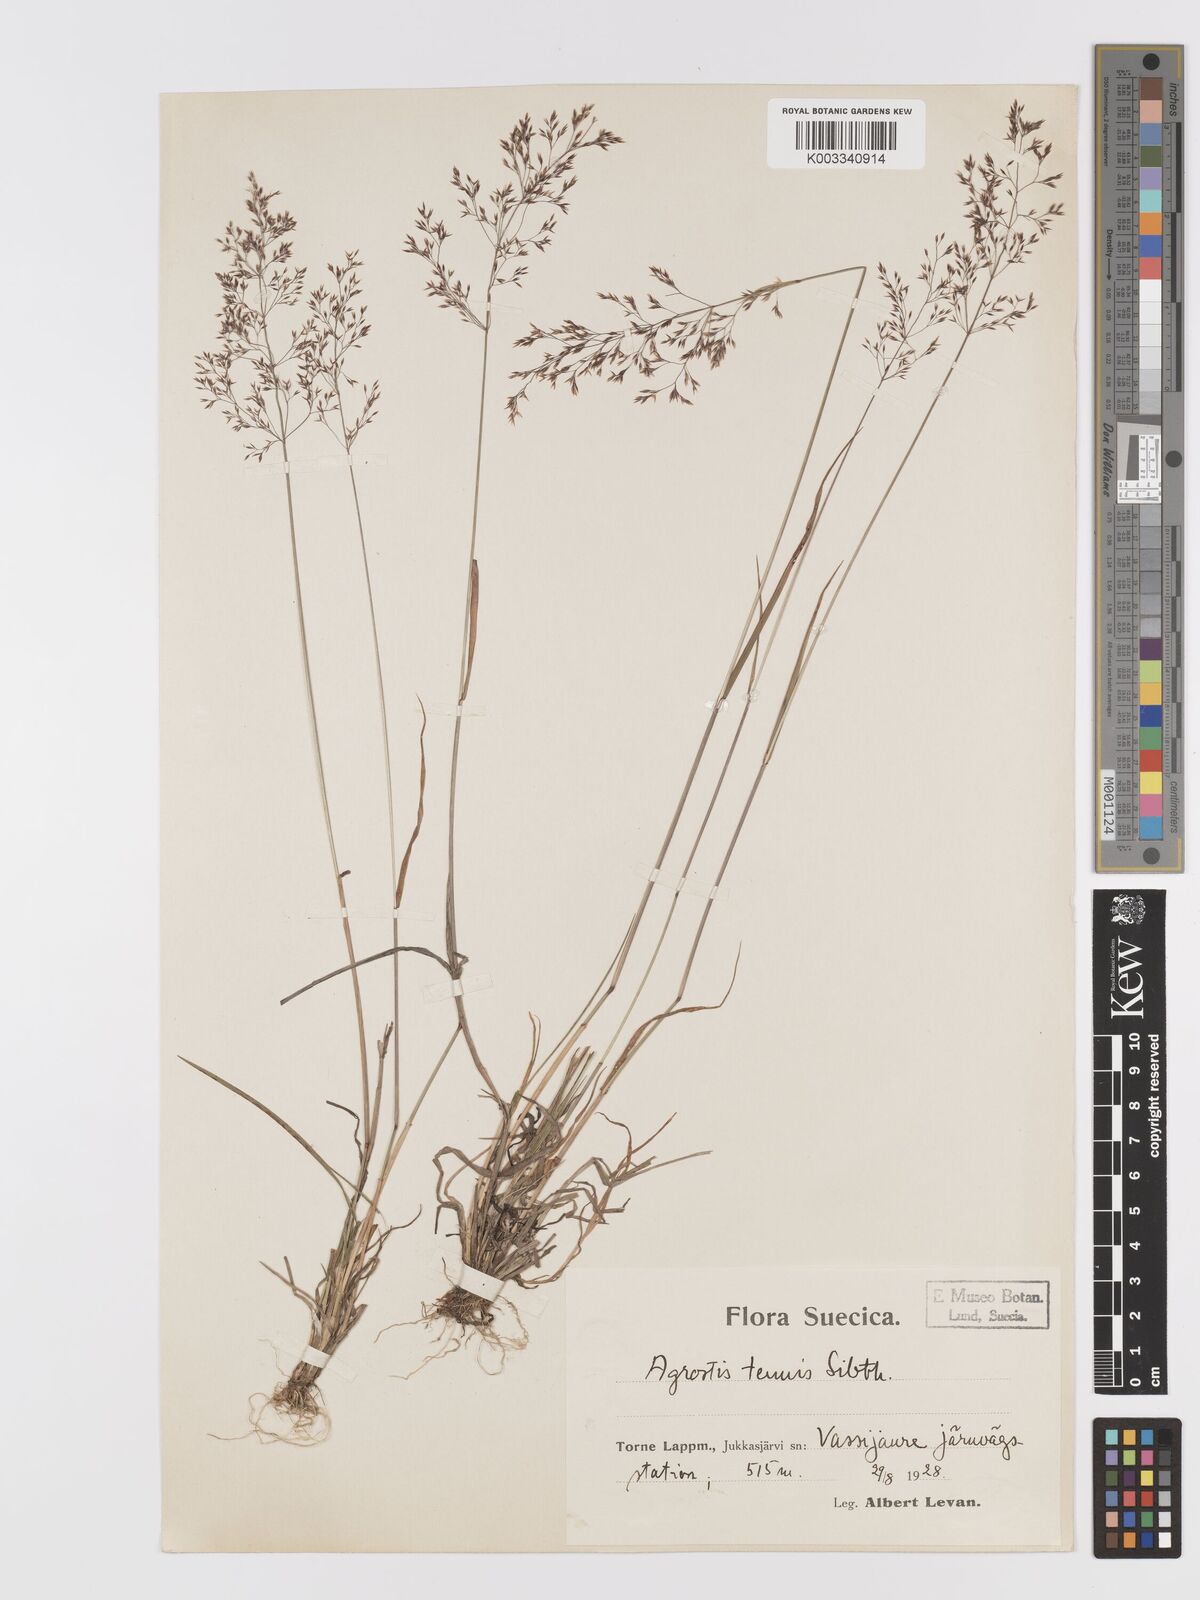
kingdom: Plantae
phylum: Tracheophyta
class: Liliopsida
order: Poales
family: Poaceae
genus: Agrostis
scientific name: Agrostis capillaris
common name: Colonial bentgrass
